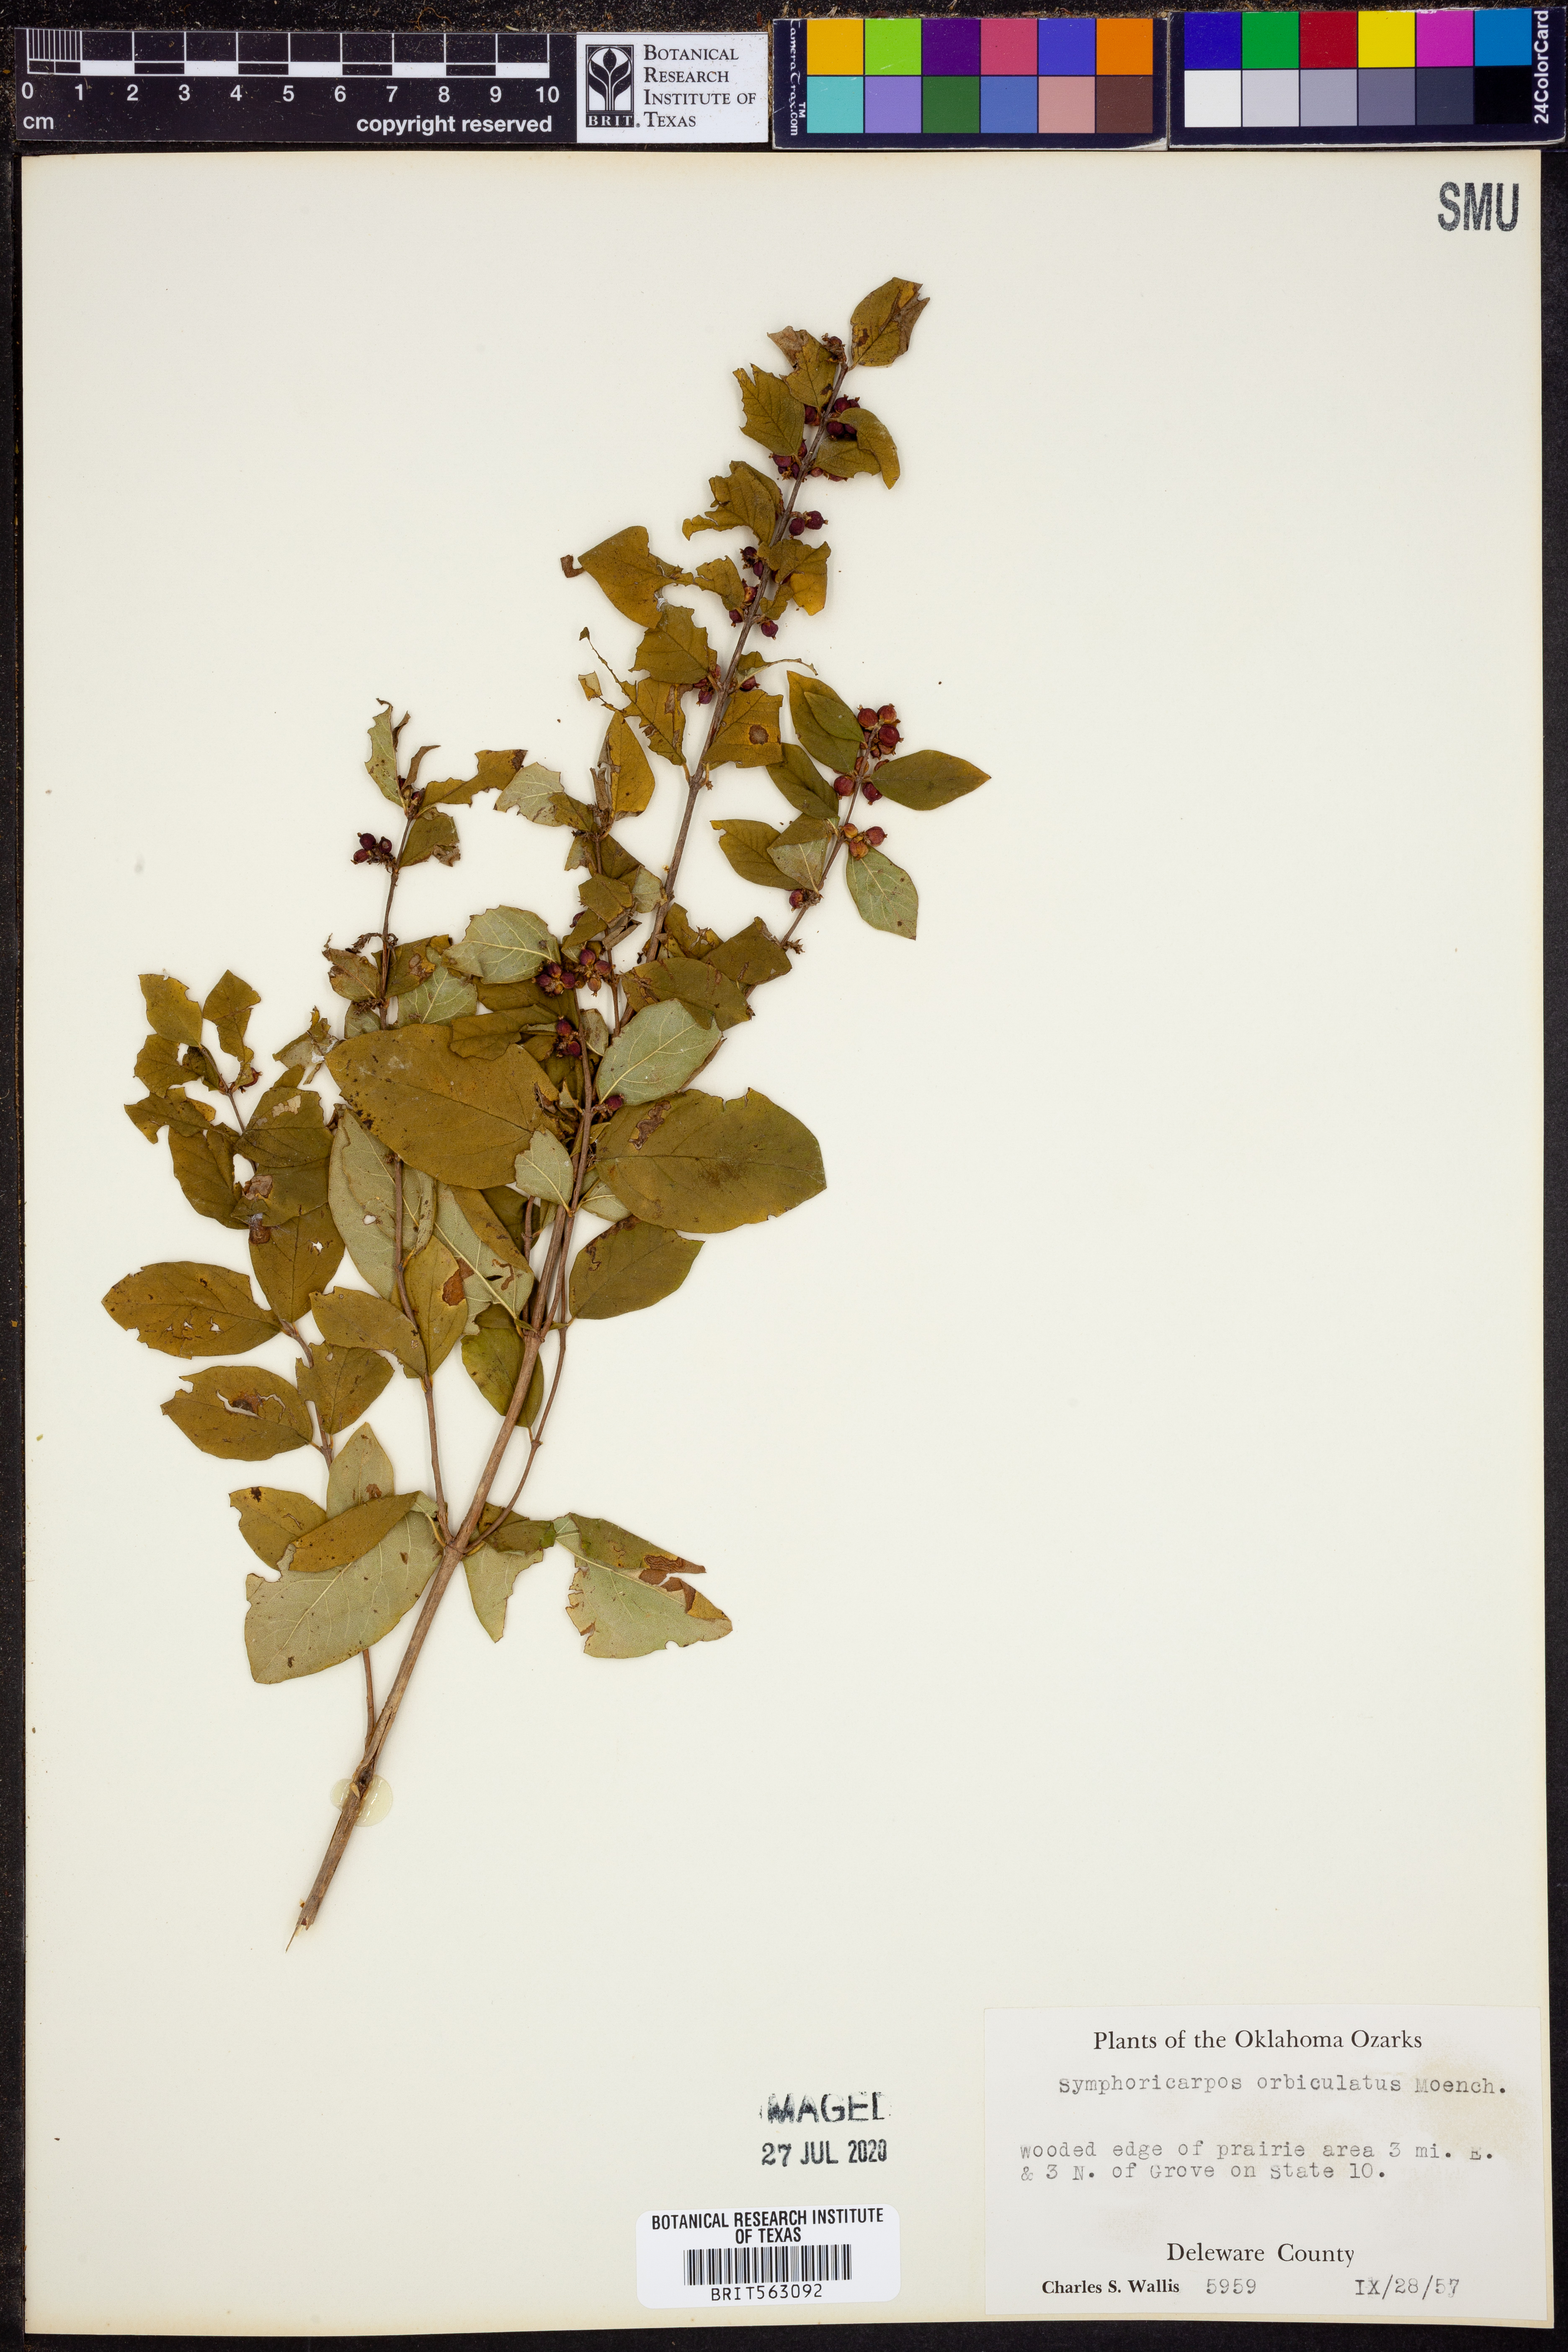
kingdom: Plantae
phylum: Tracheophyta
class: Magnoliopsida
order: Dipsacales
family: Caprifoliaceae
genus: Symphoricarpos
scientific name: Symphoricarpos orbiculatus
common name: Coralberry
